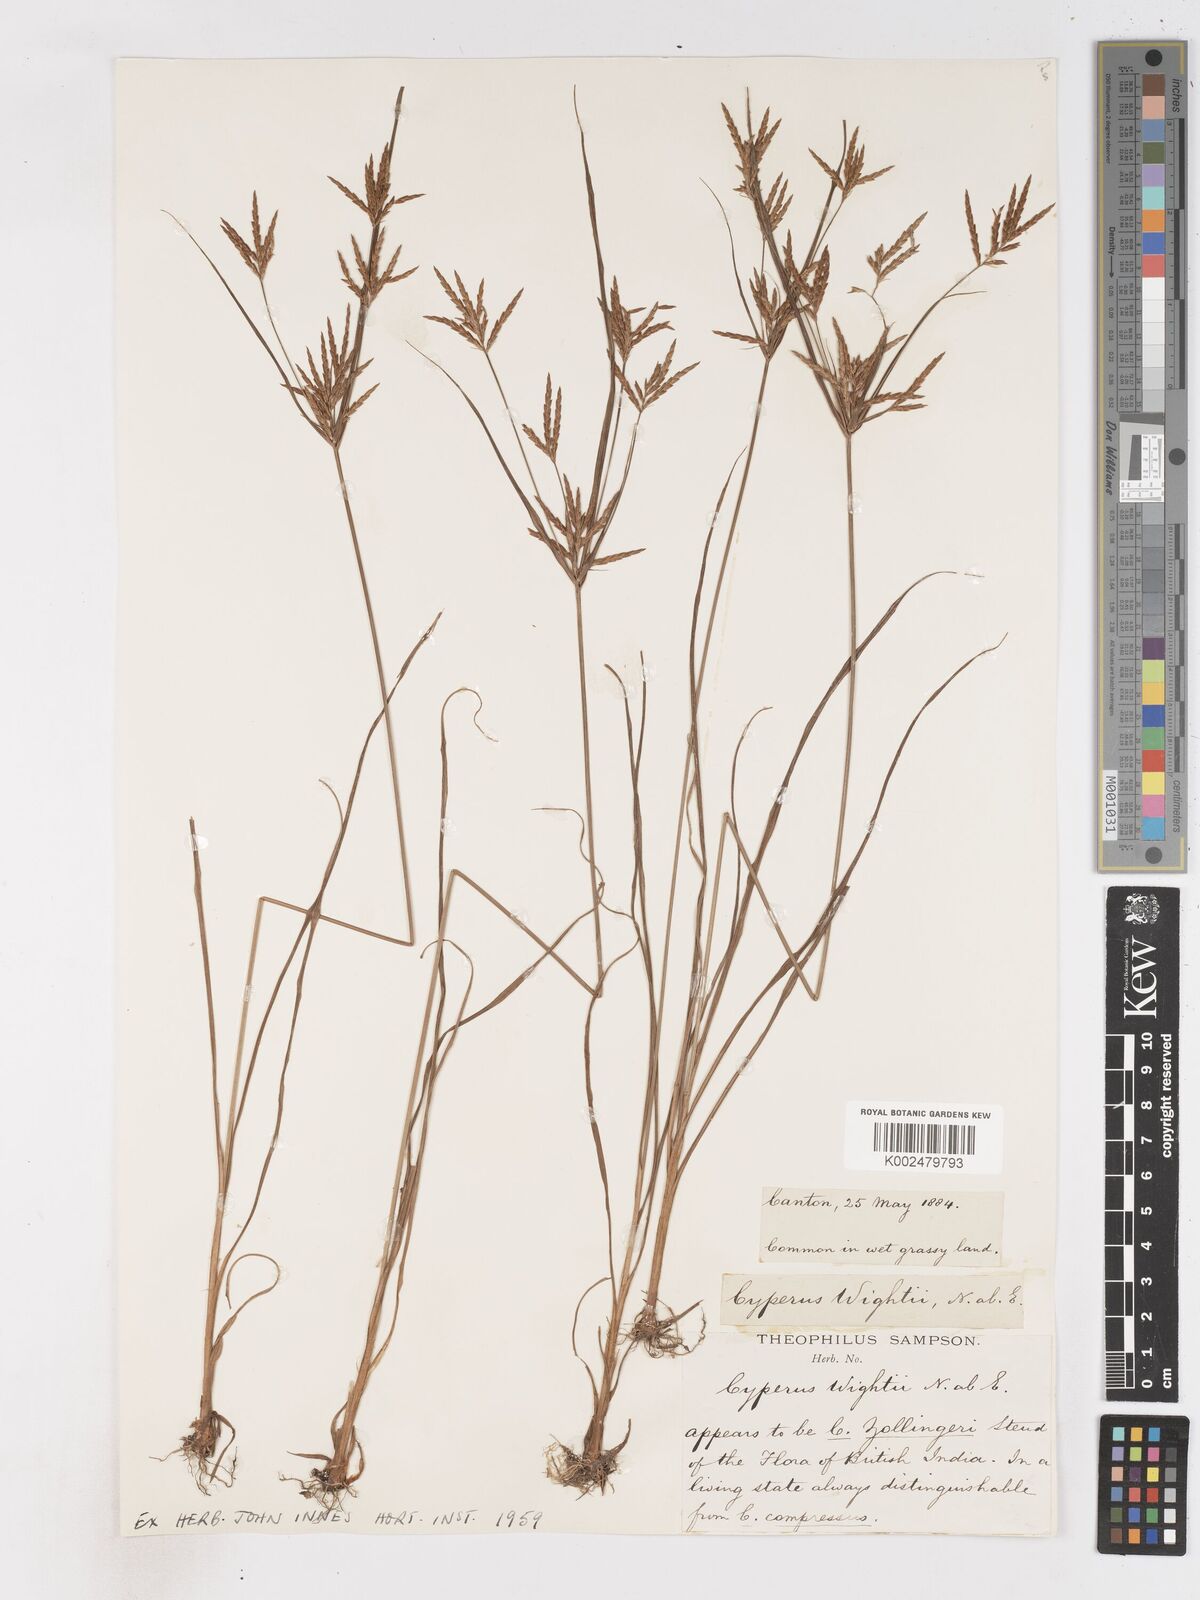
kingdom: Plantae
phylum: Tracheophyta
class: Liliopsida
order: Poales
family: Cyperaceae
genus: Cyperus
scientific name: Cyperus tenuiculmis
